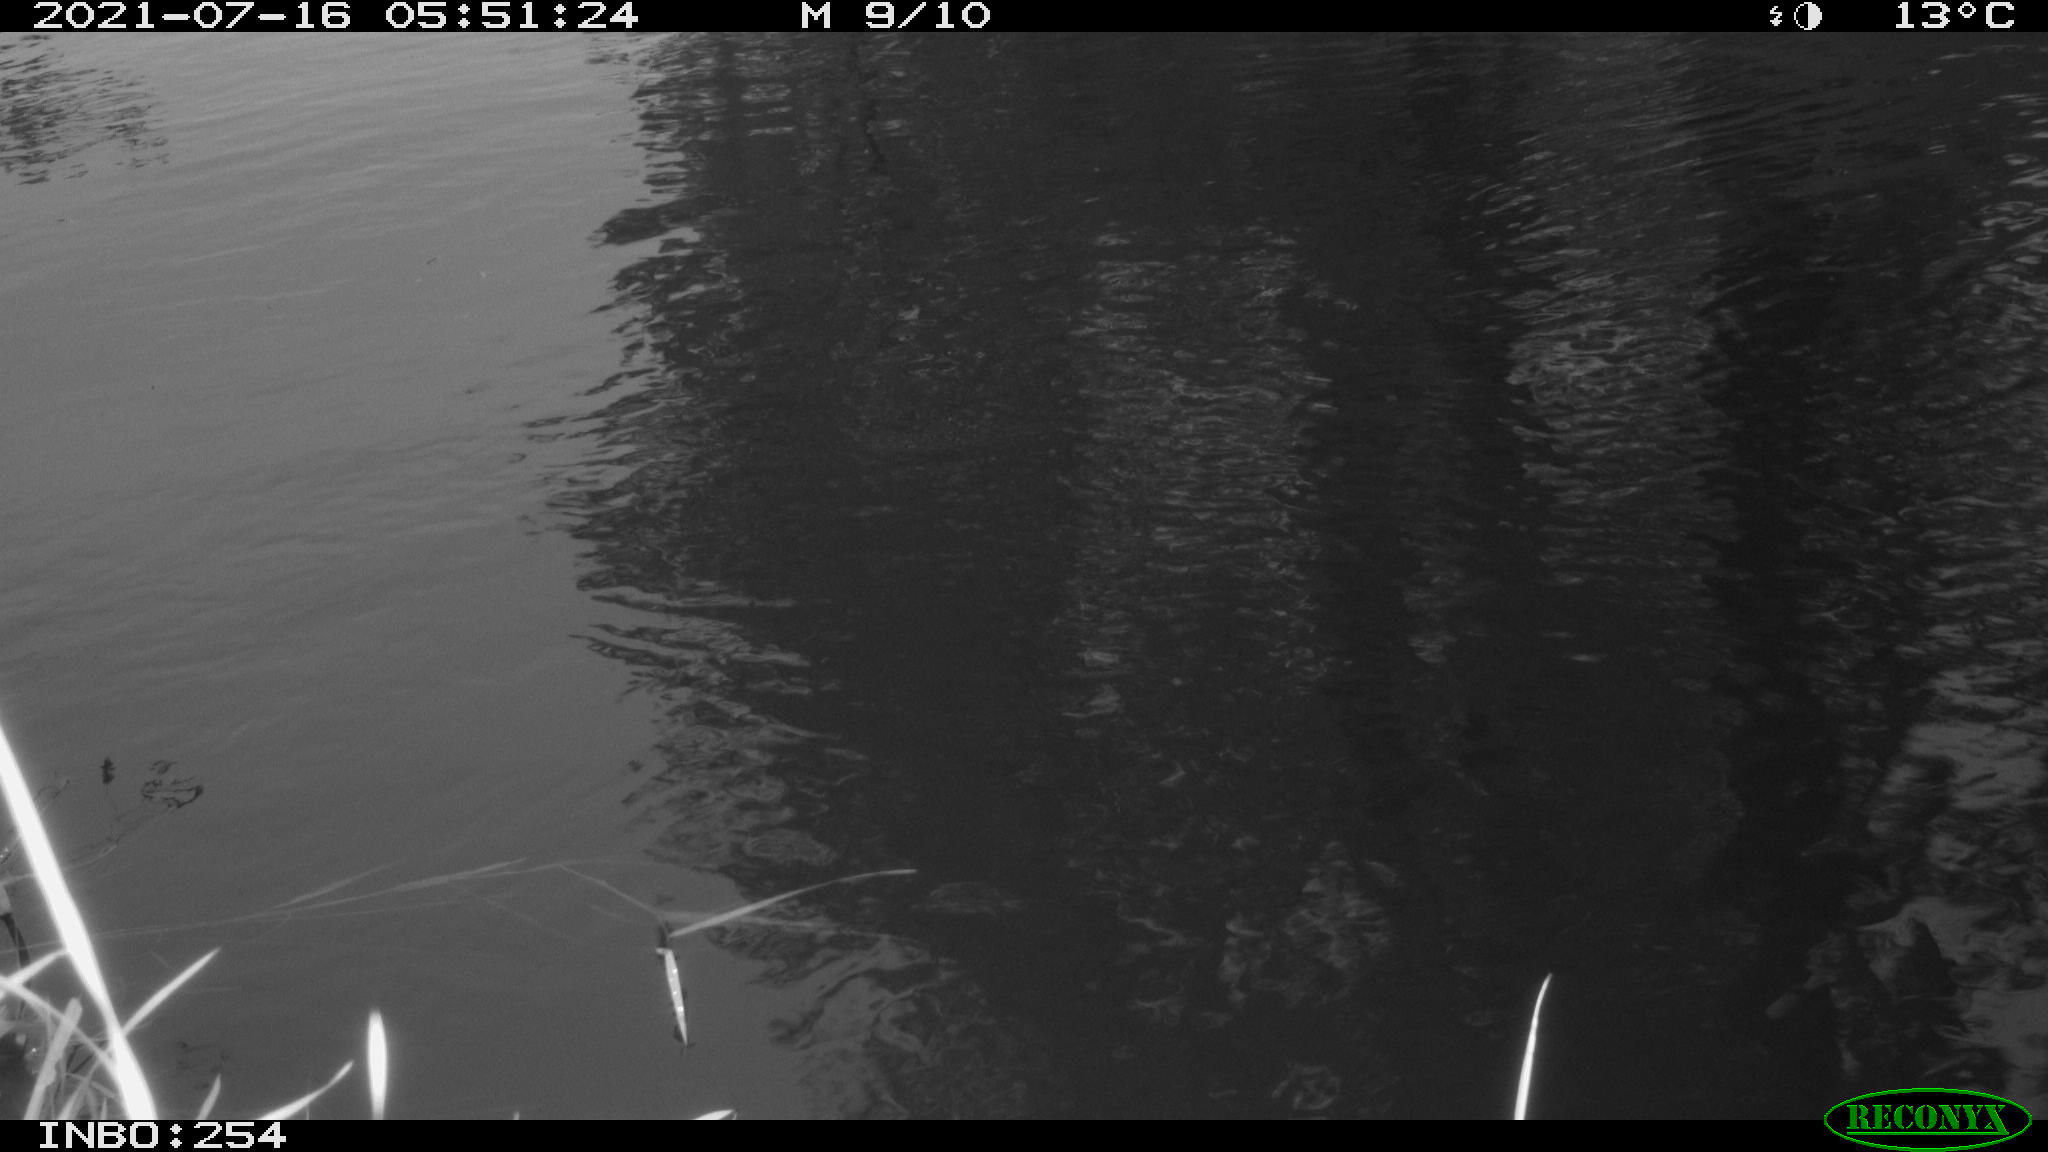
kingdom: Animalia
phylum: Chordata
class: Aves
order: Gruiformes
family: Rallidae
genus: Gallinula
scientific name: Gallinula chloropus
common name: Common moorhen
